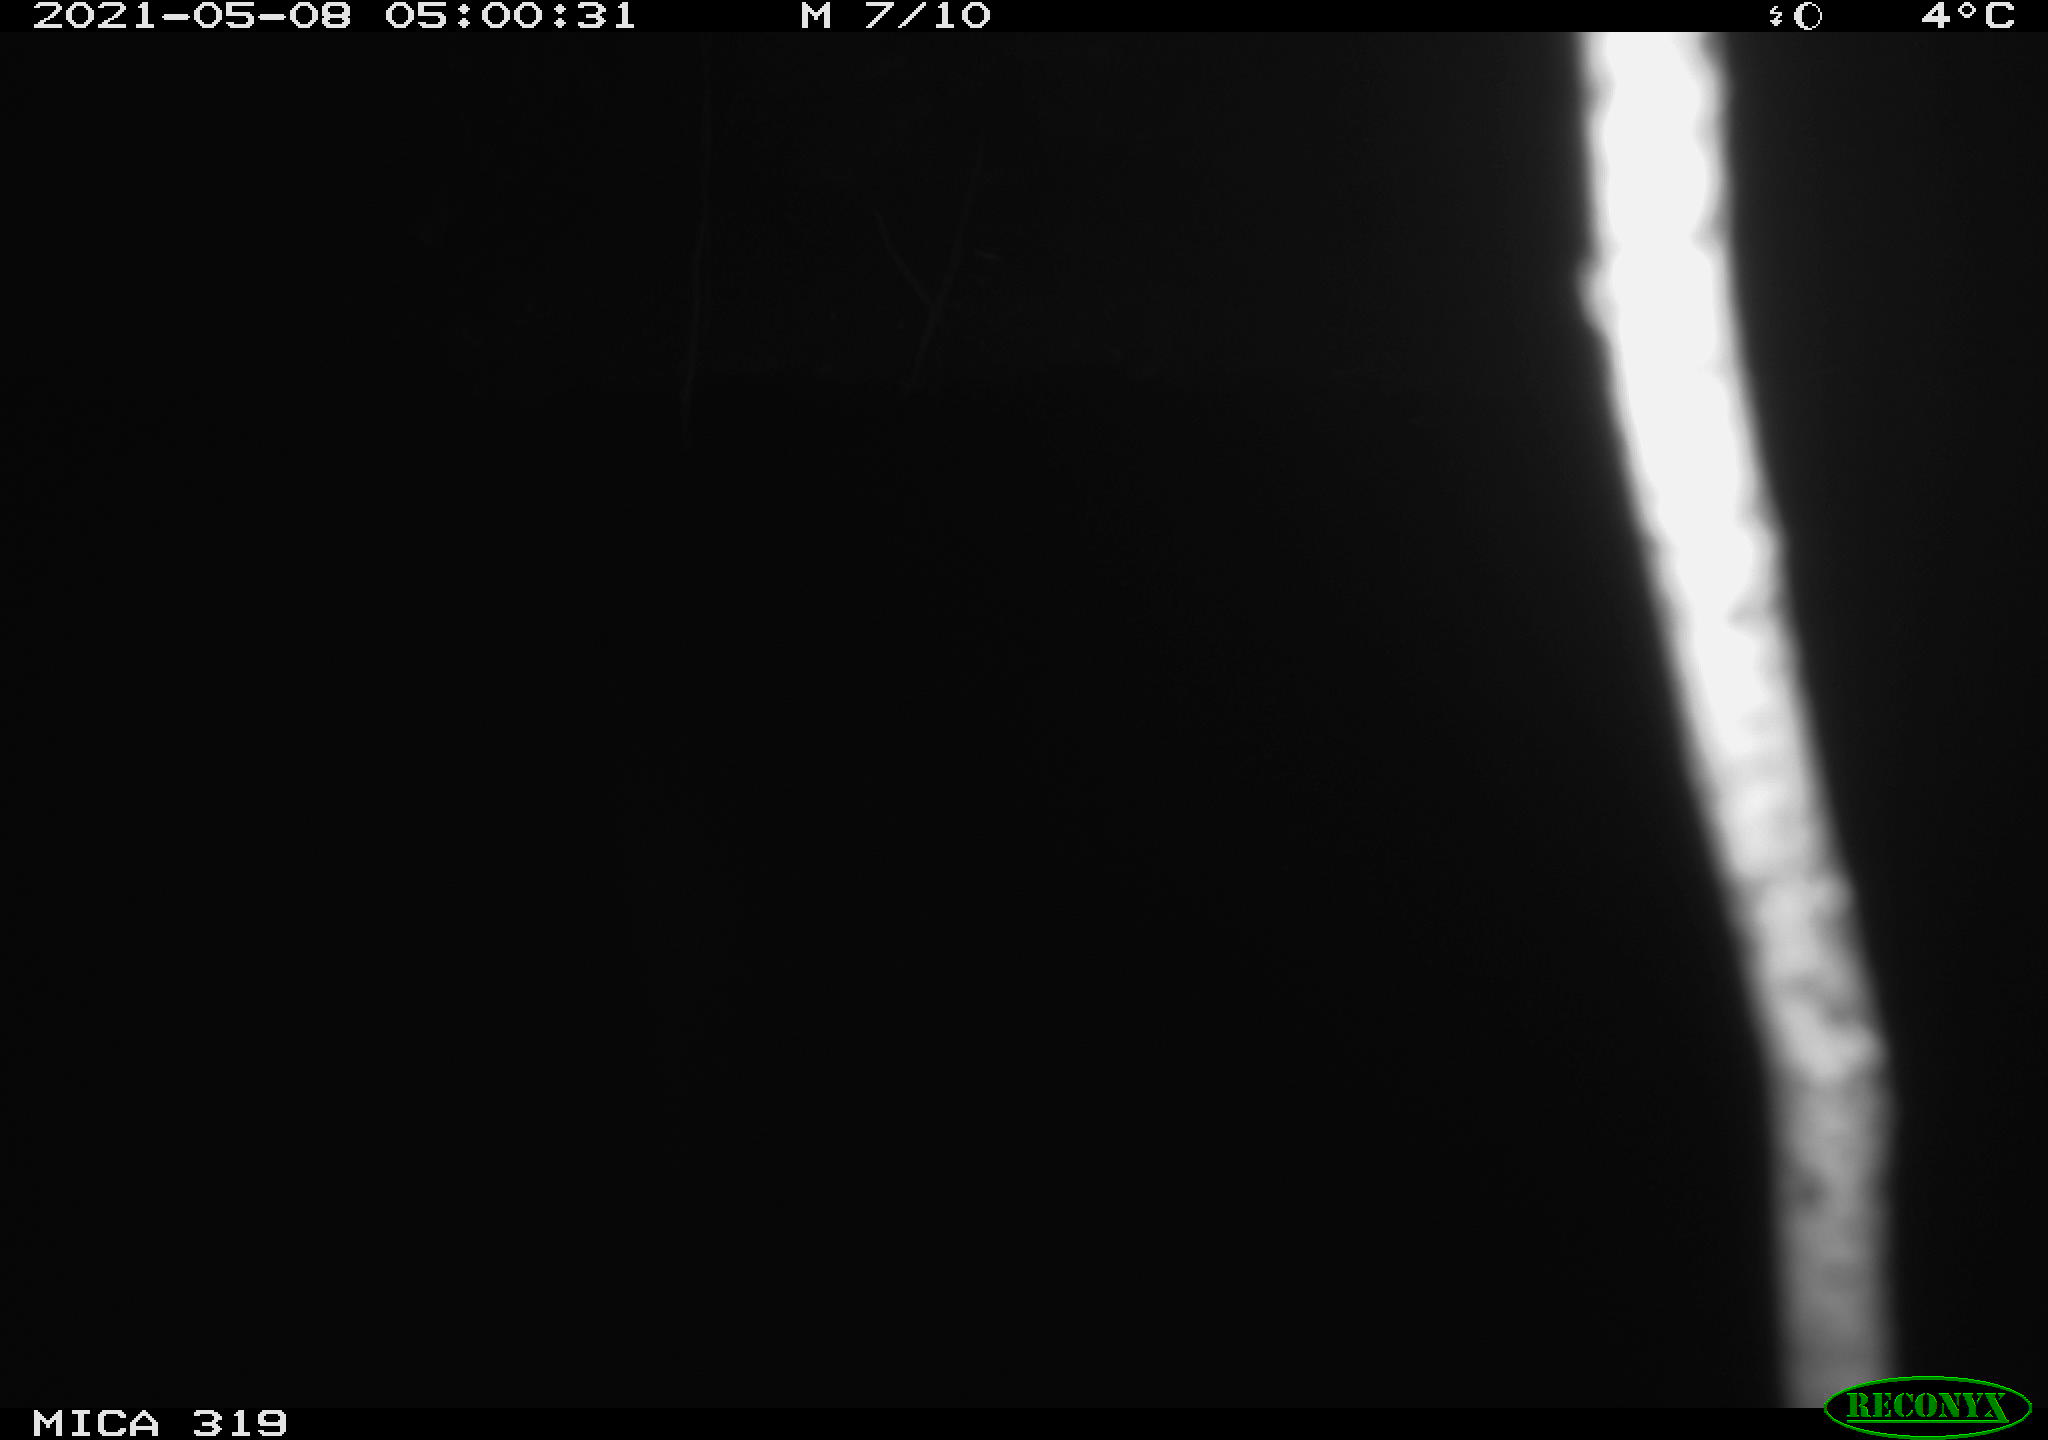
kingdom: Animalia
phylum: Chordata
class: Aves
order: Anseriformes
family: Anatidae
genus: Anas
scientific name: Anas platyrhynchos
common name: Mallard
